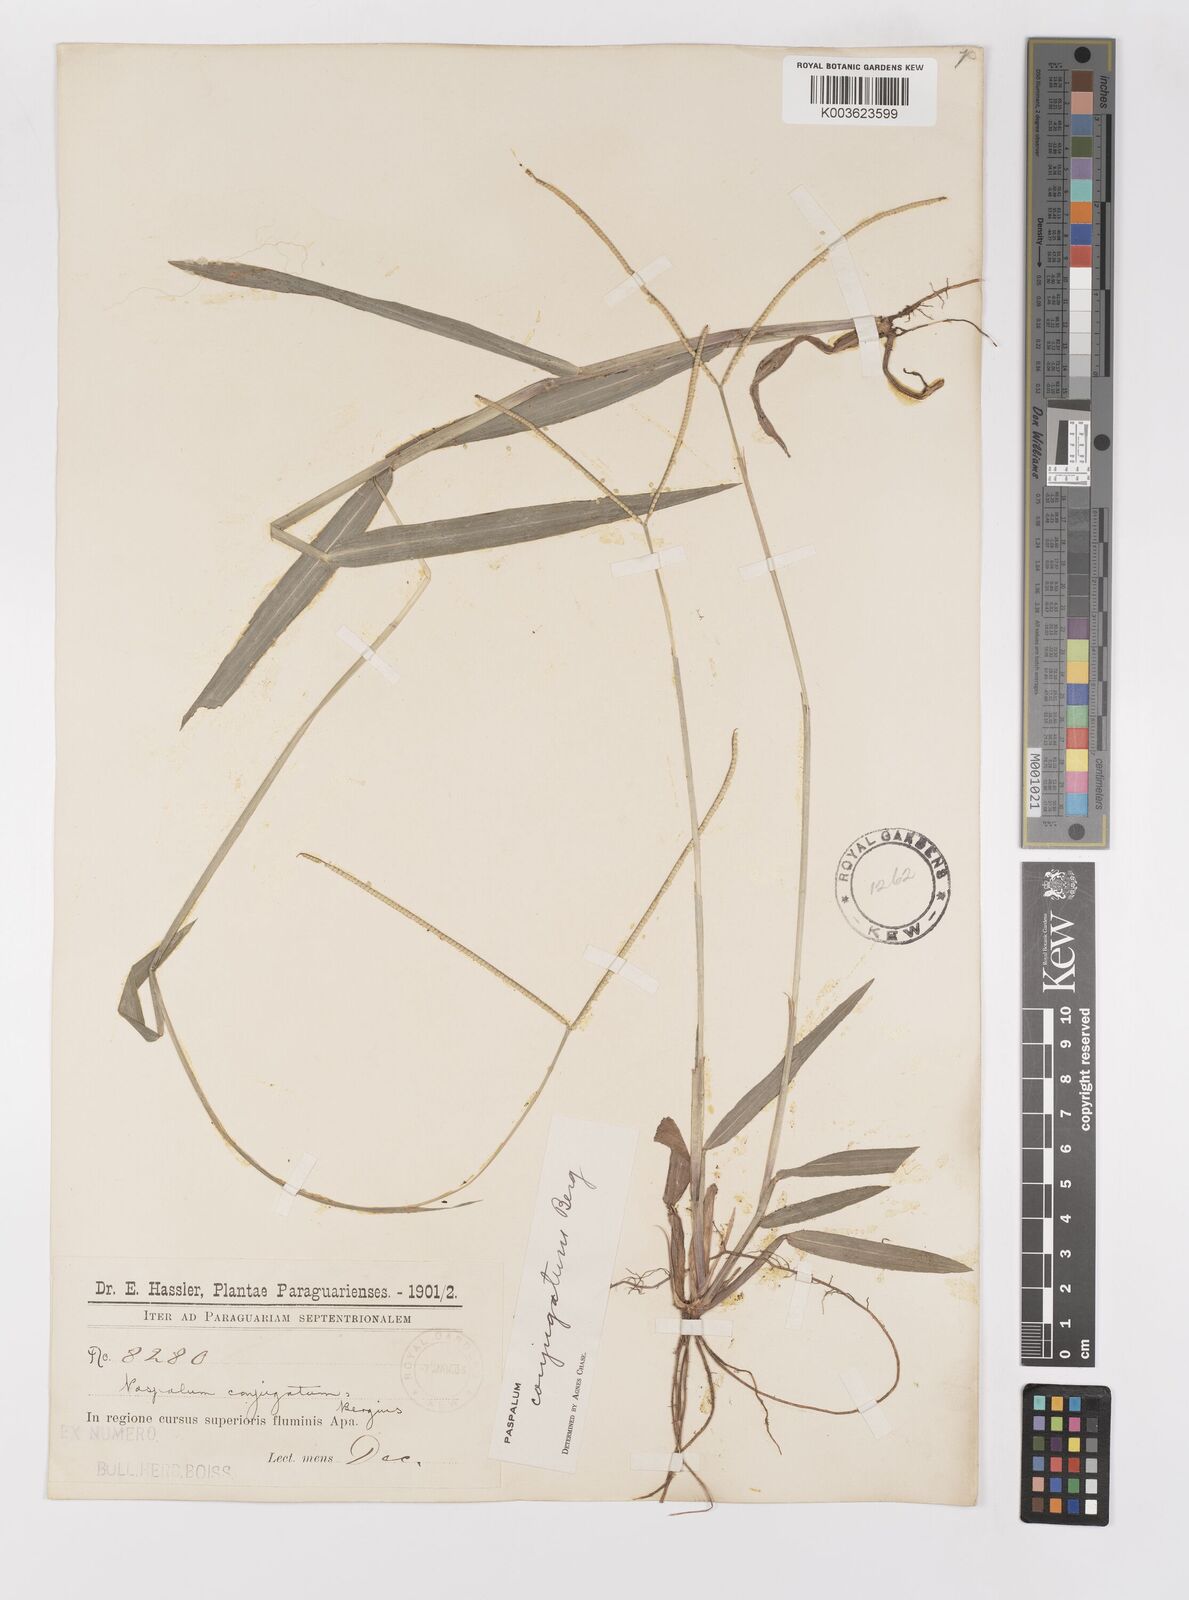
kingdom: Plantae
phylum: Tracheophyta
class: Liliopsida
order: Poales
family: Poaceae
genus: Paspalum
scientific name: Paspalum conjugatum
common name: Hilograss
